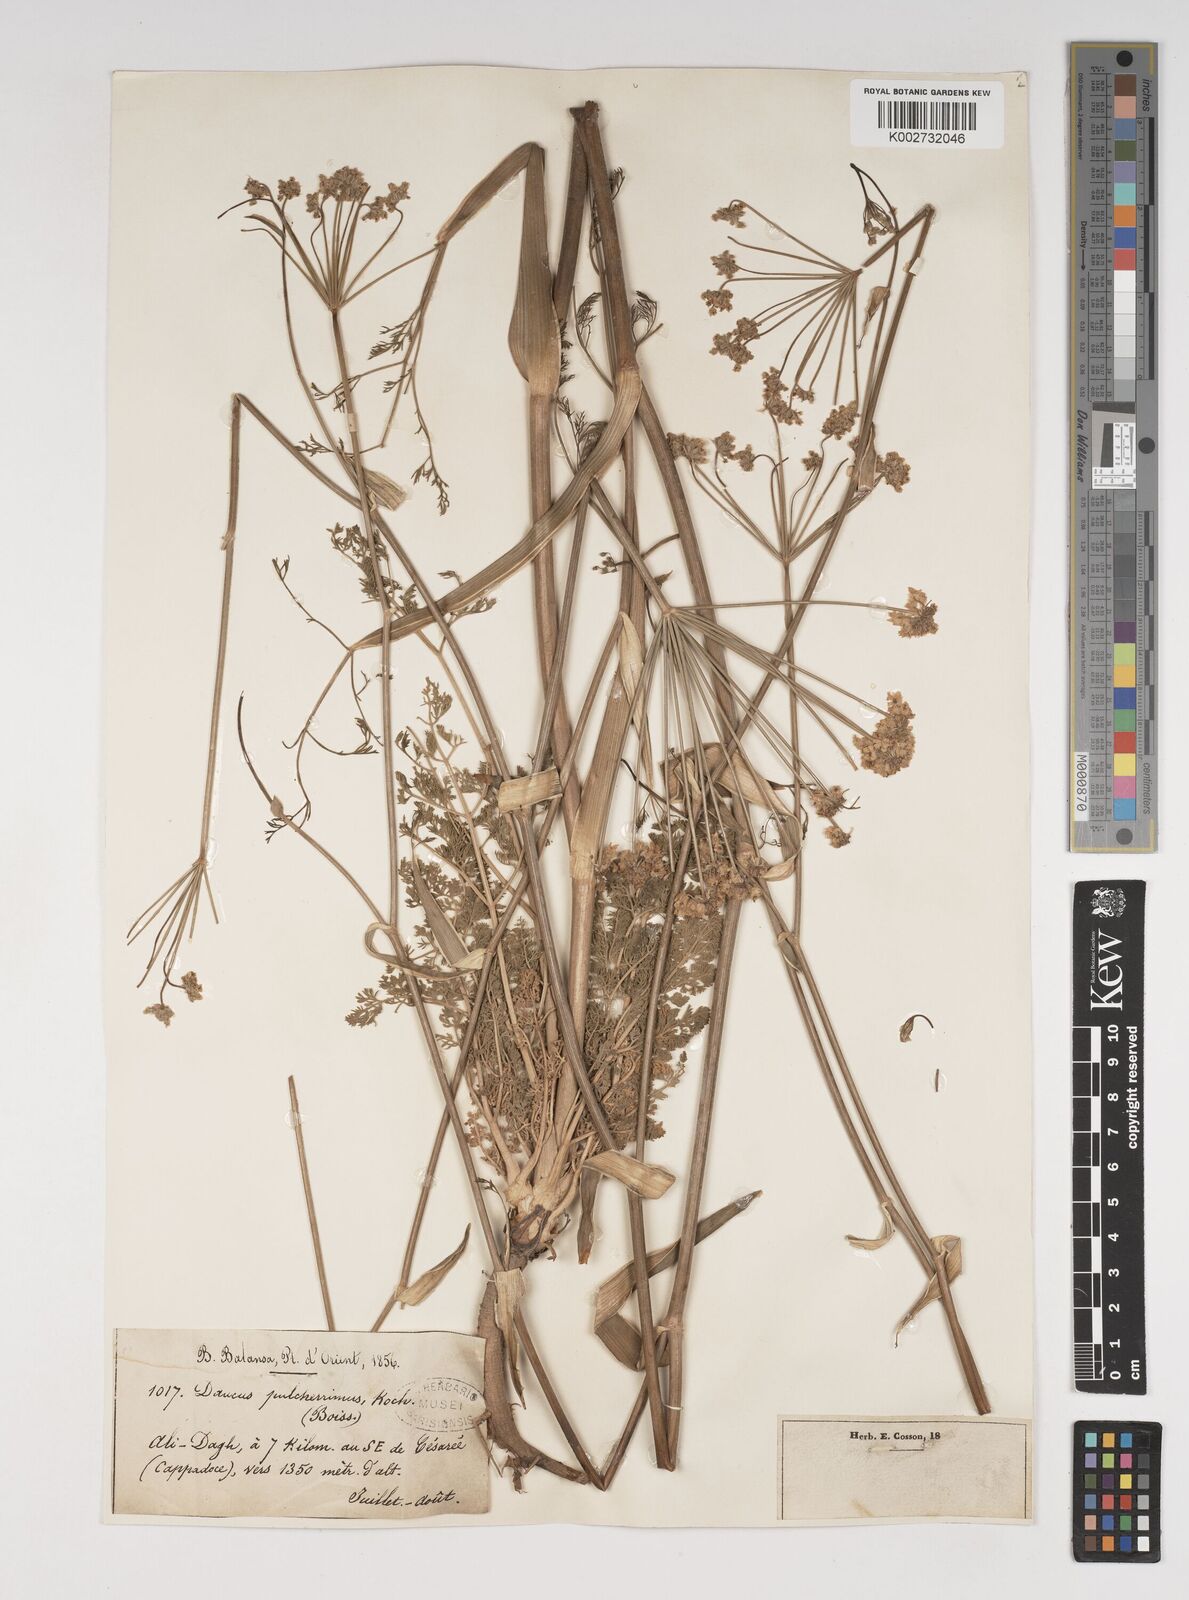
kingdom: Plantae
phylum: Tracheophyta
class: Magnoliopsida
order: Apiales
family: Apiaceae
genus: Astrodaucus
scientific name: Astrodaucus
